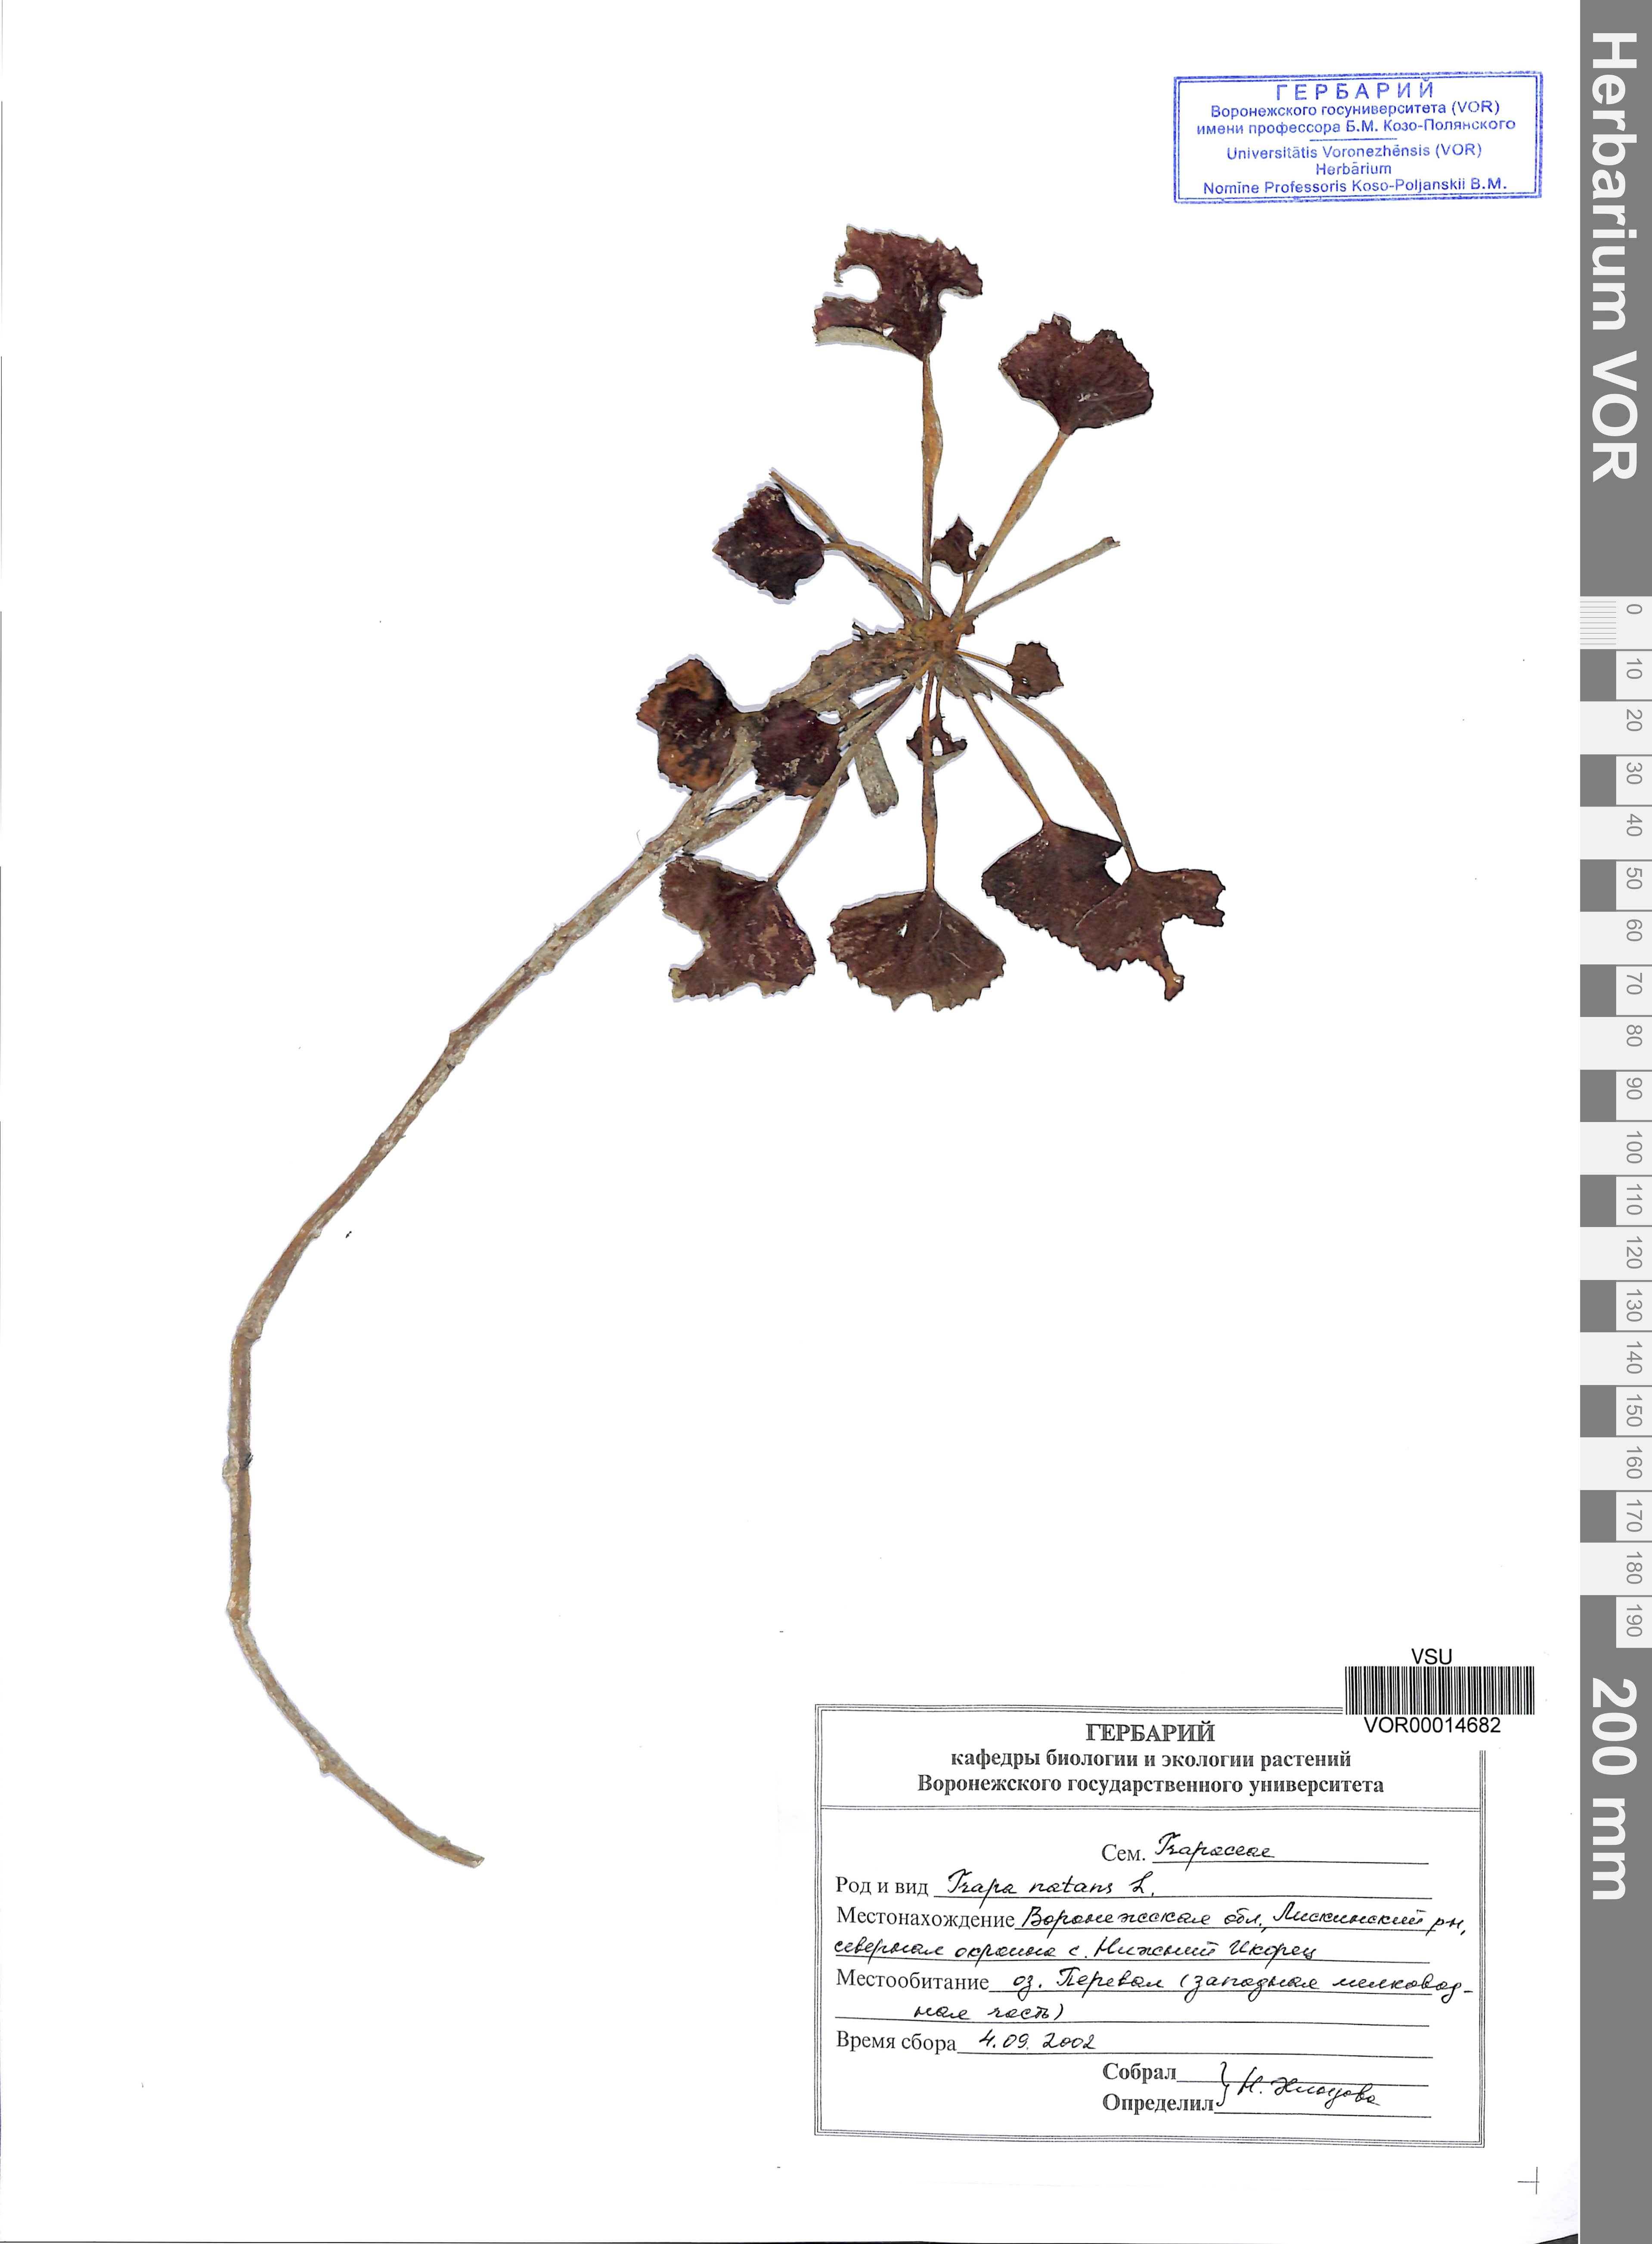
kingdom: Plantae
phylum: Tracheophyta
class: Magnoliopsida
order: Myrtales
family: Lythraceae
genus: Trapa
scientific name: Trapa natans
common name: Water chestnut
